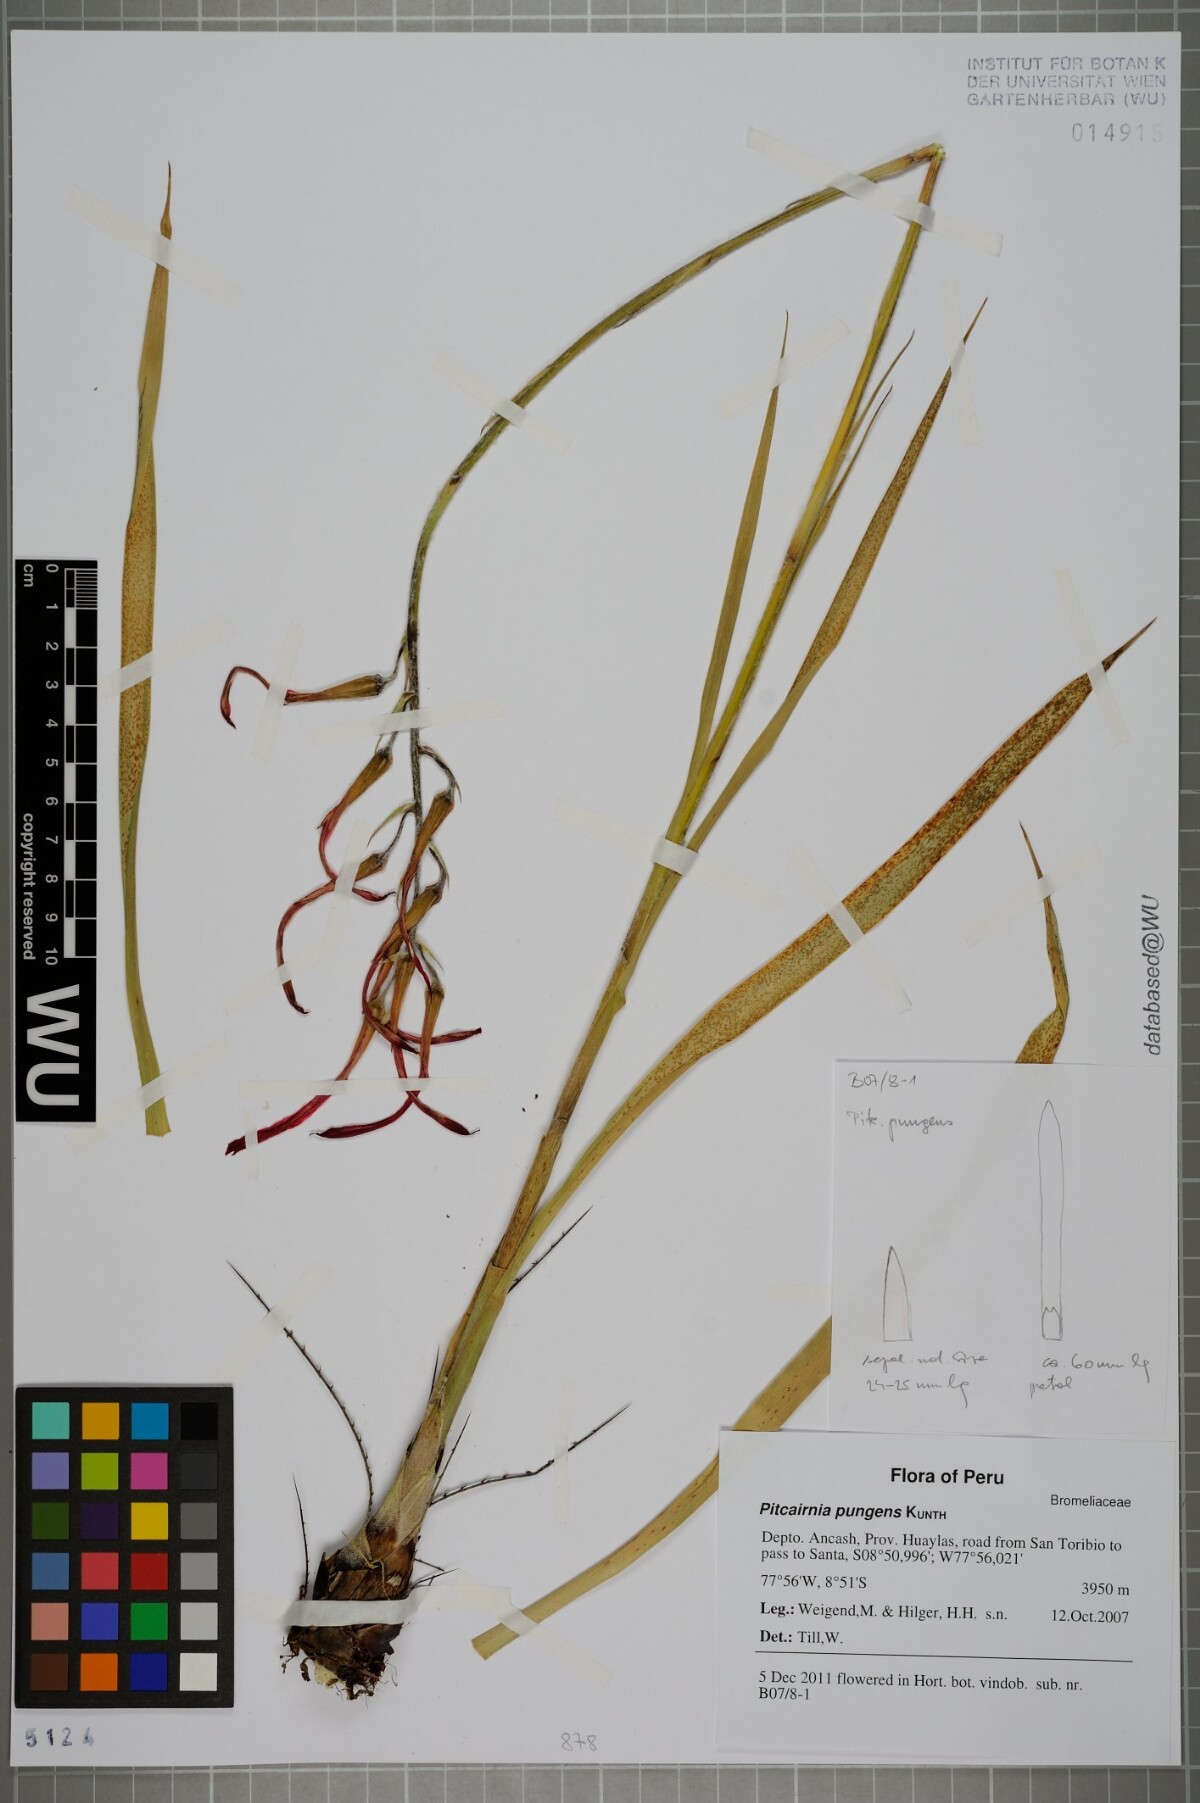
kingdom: Plantae
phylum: Tracheophyta
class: Liliopsida
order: Poales
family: Bromeliaceae
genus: Pitcairnia
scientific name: Pitcairnia pungens
